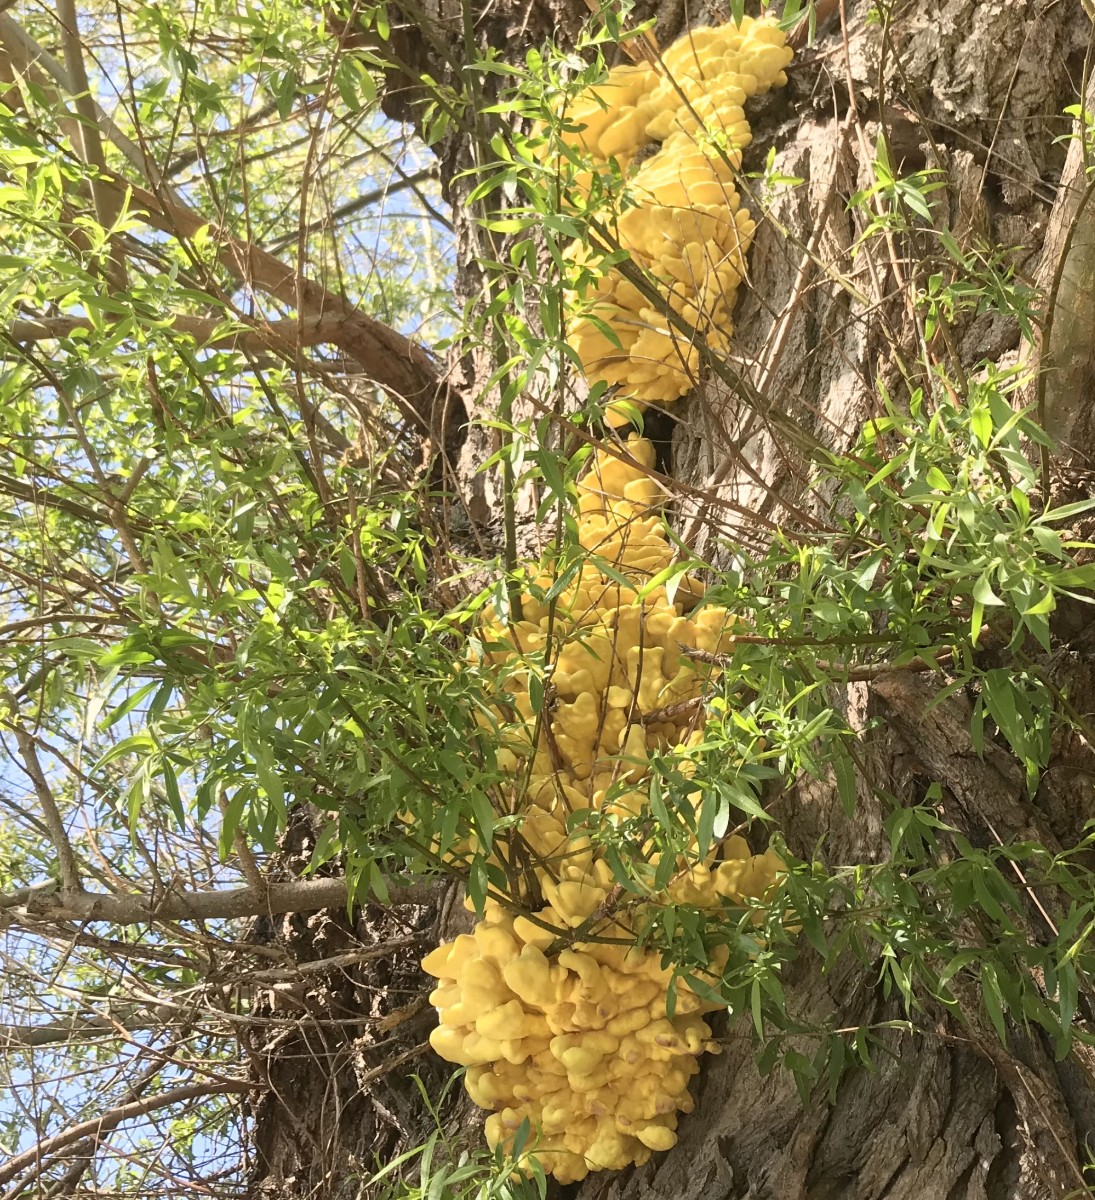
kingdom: Fungi
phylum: Basidiomycota
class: Agaricomycetes
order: Polyporales
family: Laetiporaceae
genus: Laetiporus
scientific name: Laetiporus sulphureus
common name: svovlporesvamp
